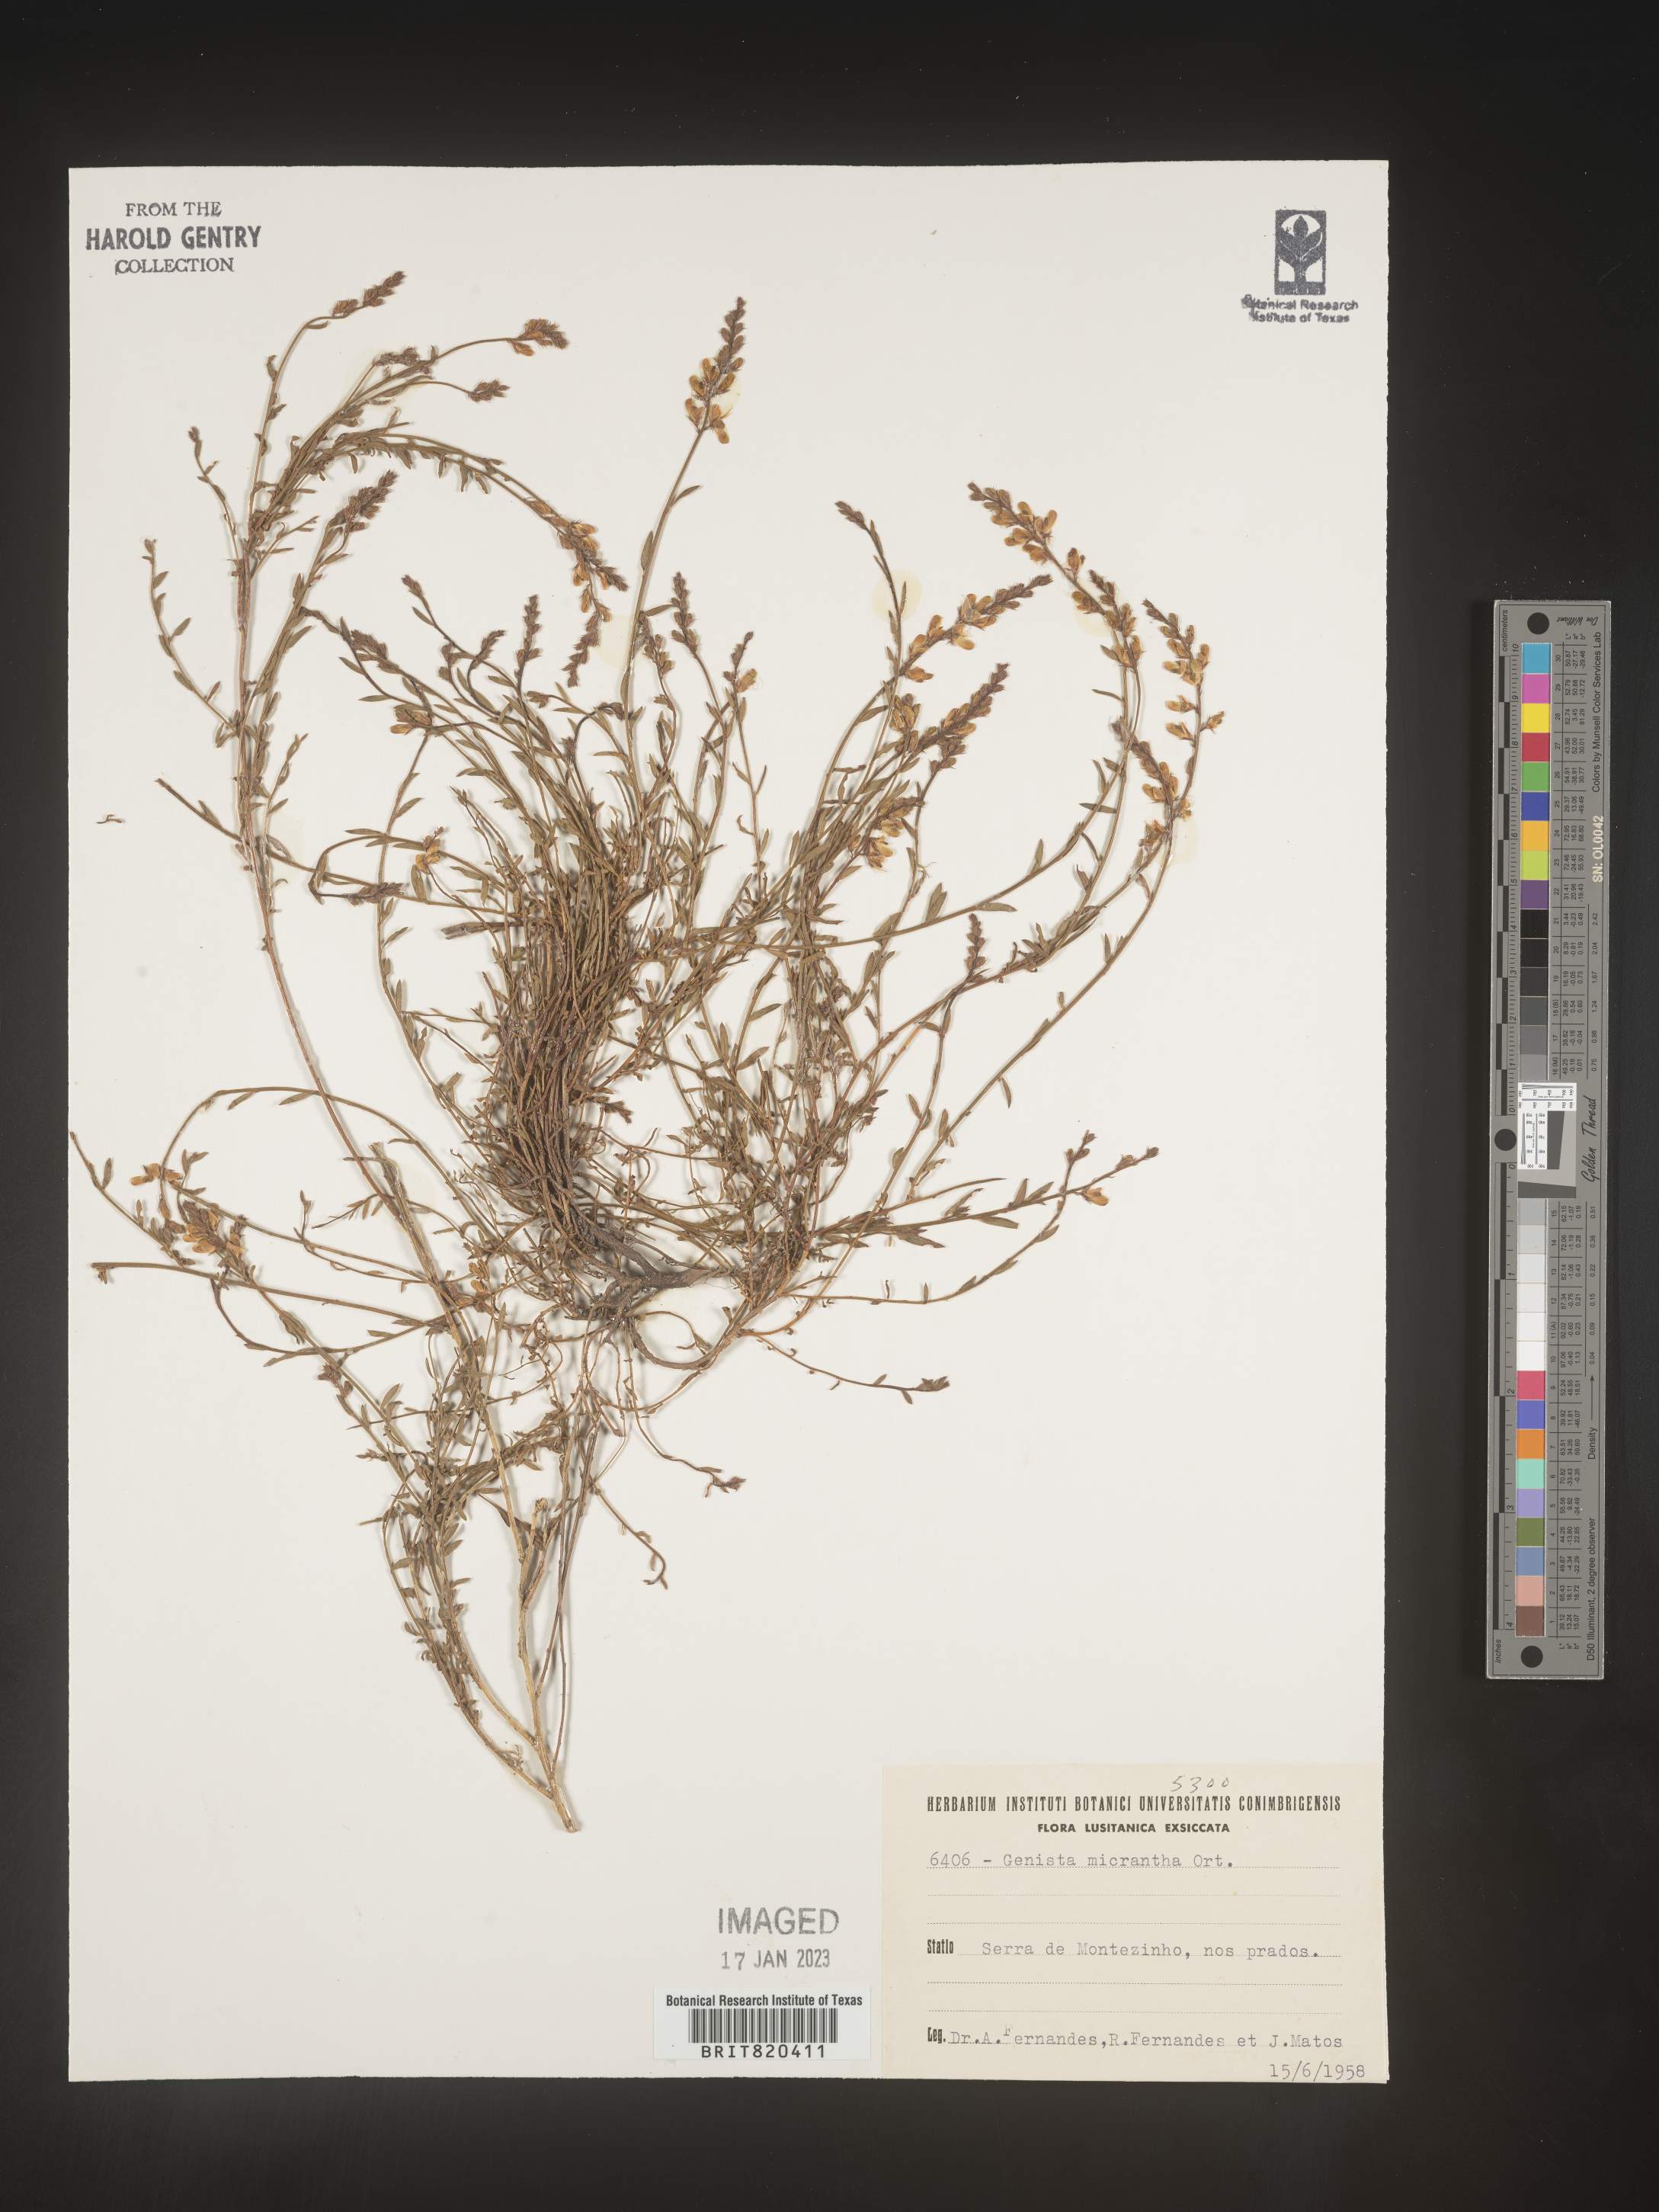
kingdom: Plantae
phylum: Tracheophyta
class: Magnoliopsida
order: Fabales
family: Fabaceae
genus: Genista
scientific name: Genista
